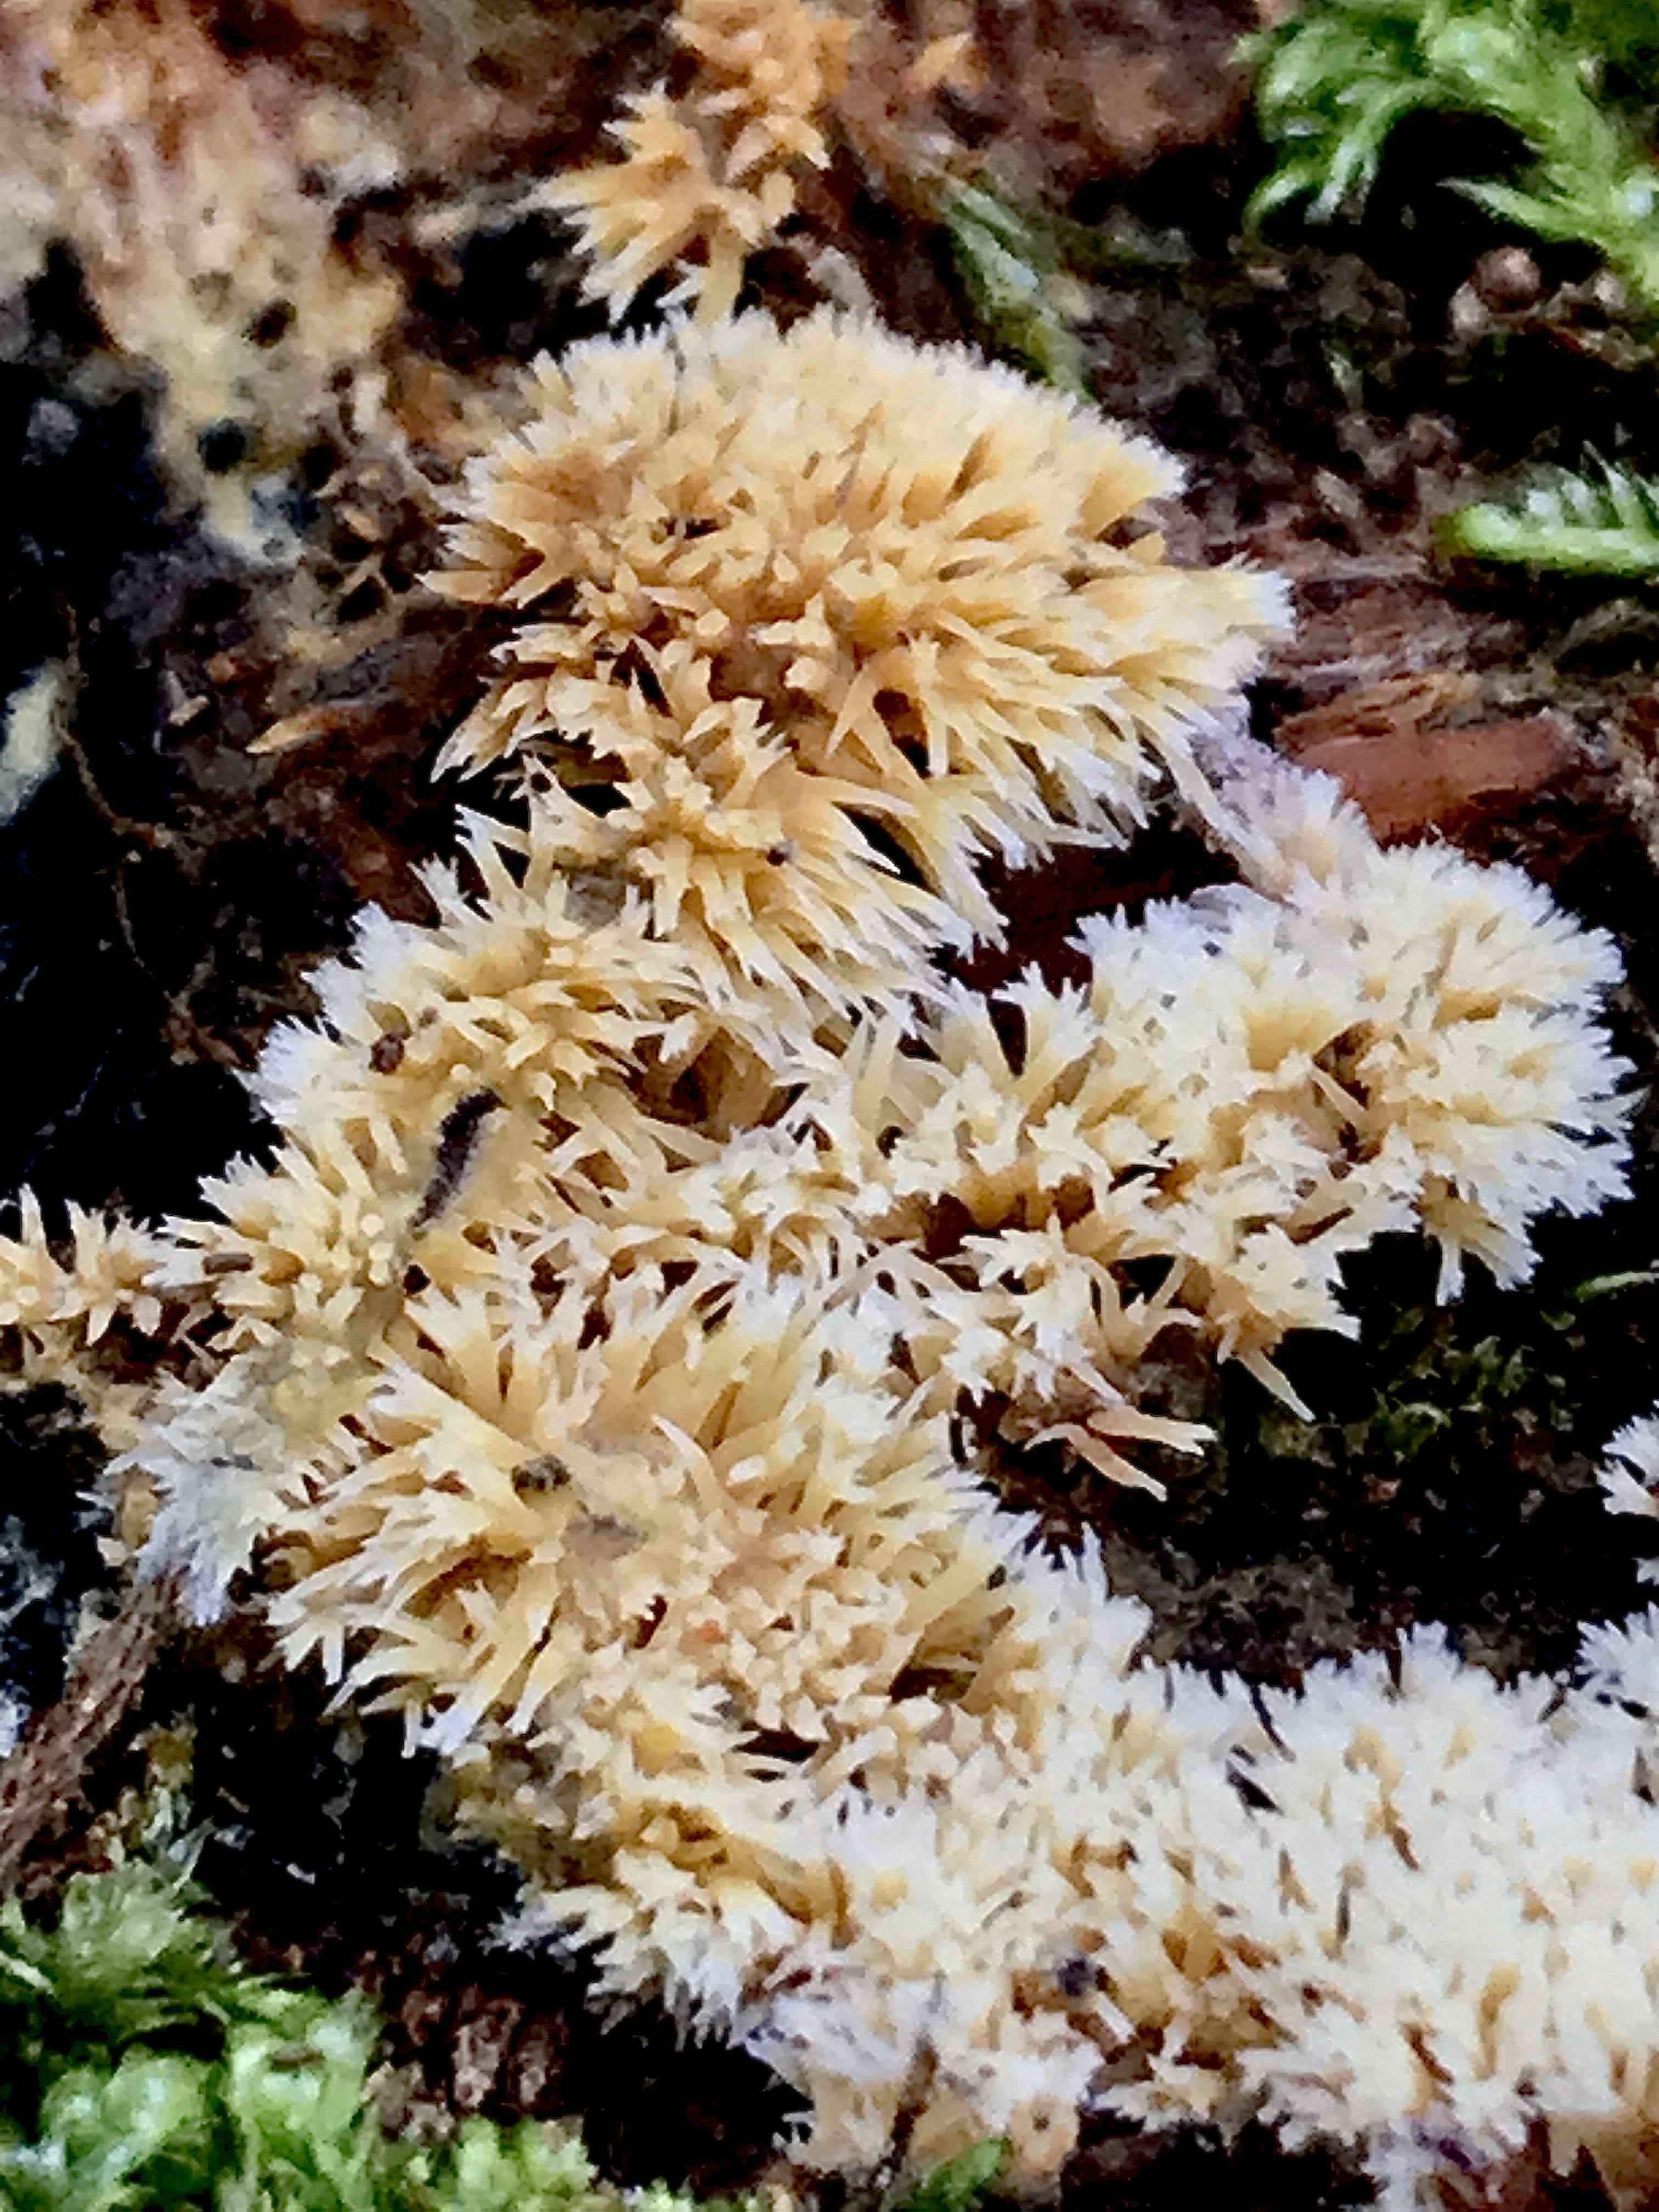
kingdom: Fungi
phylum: Basidiomycota
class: Agaricomycetes
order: Polyporales
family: Meruliaceae
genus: Mycoacia
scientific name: Mycoacia uda
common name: citrongul vokspig
